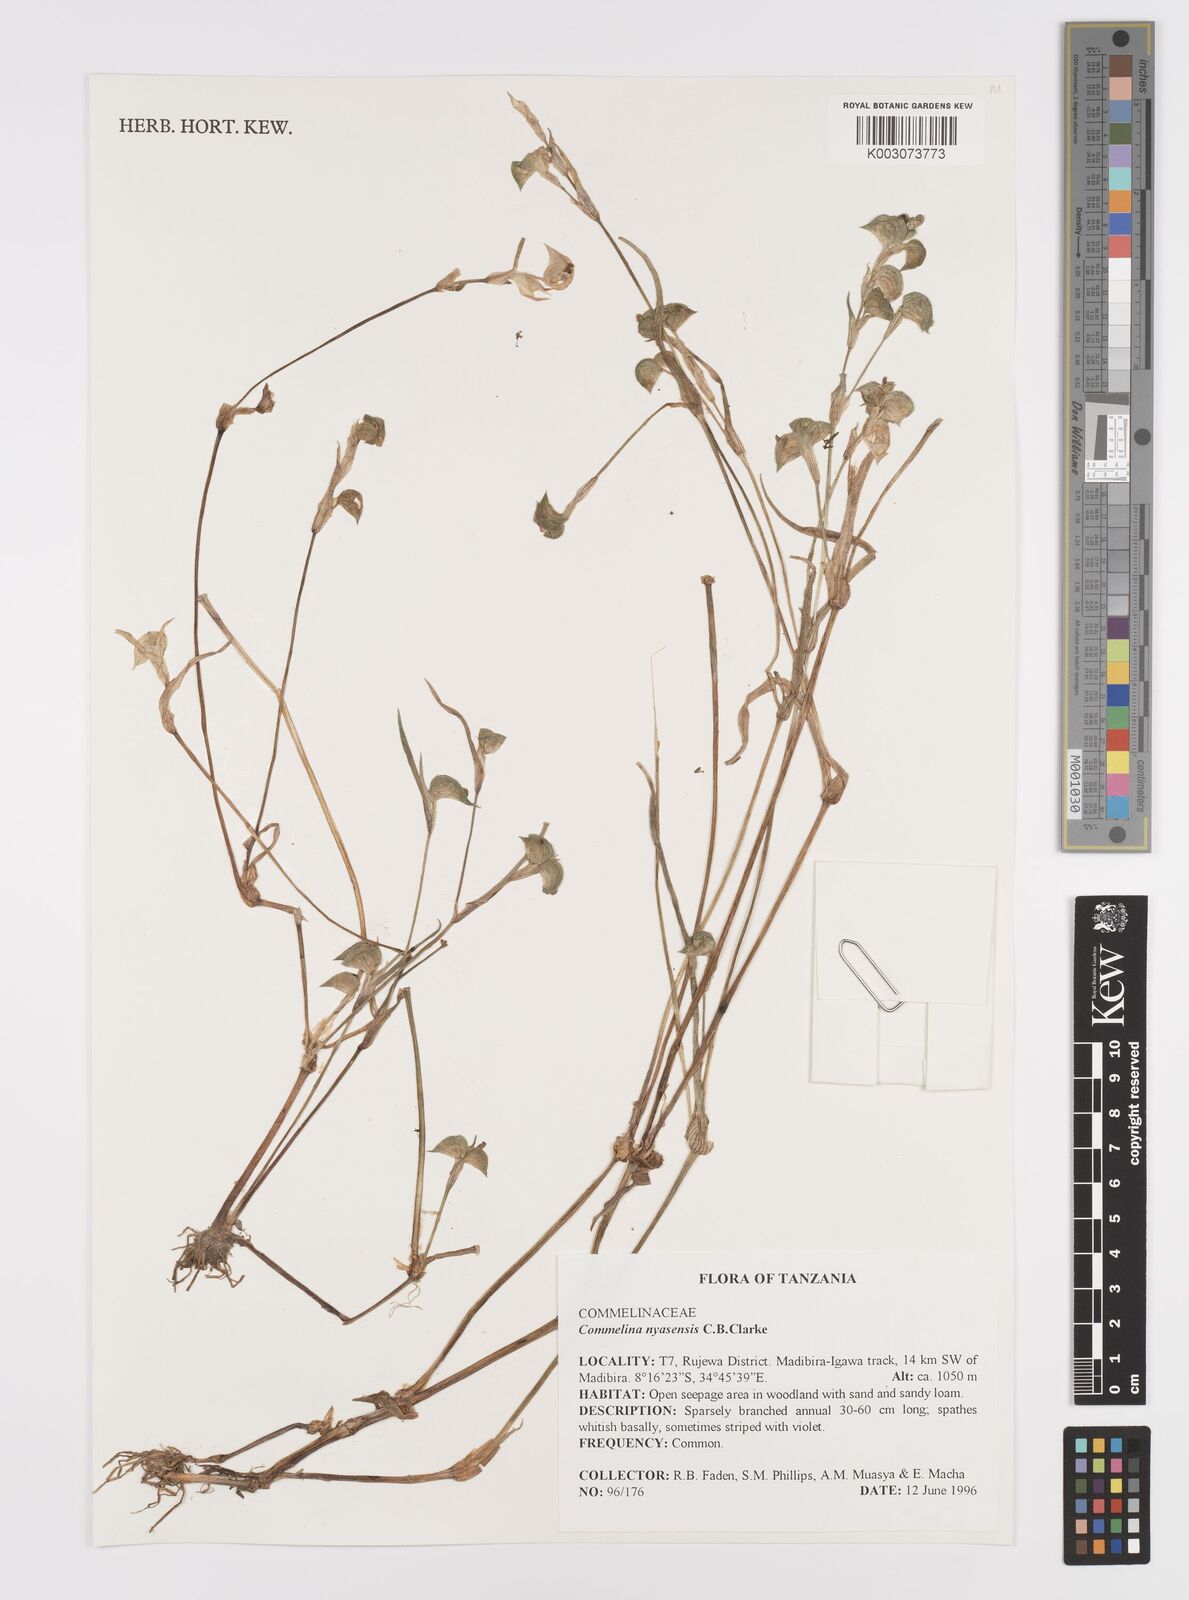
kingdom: Plantae
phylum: Tracheophyta
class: Liliopsida
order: Commelinales
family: Commelinaceae
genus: Commelina
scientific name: Commelina nyasensis
